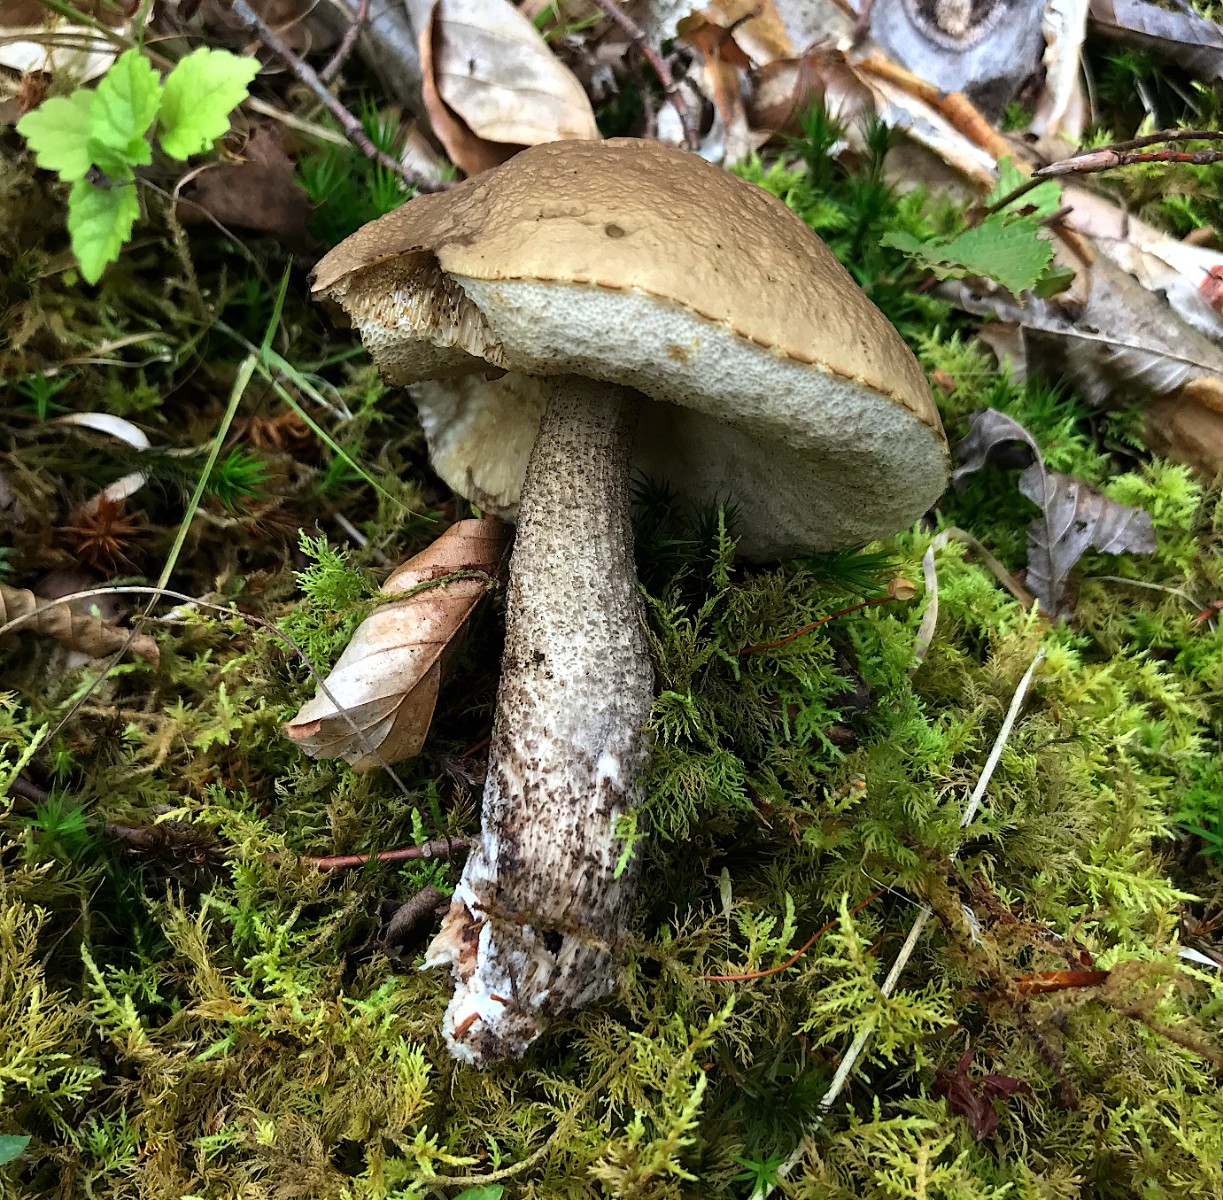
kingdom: Fungi
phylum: Basidiomycota
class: Agaricomycetes
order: Boletales
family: Boletaceae
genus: Leccinum
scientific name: Leccinum scabrum
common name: brun skælrørhat
